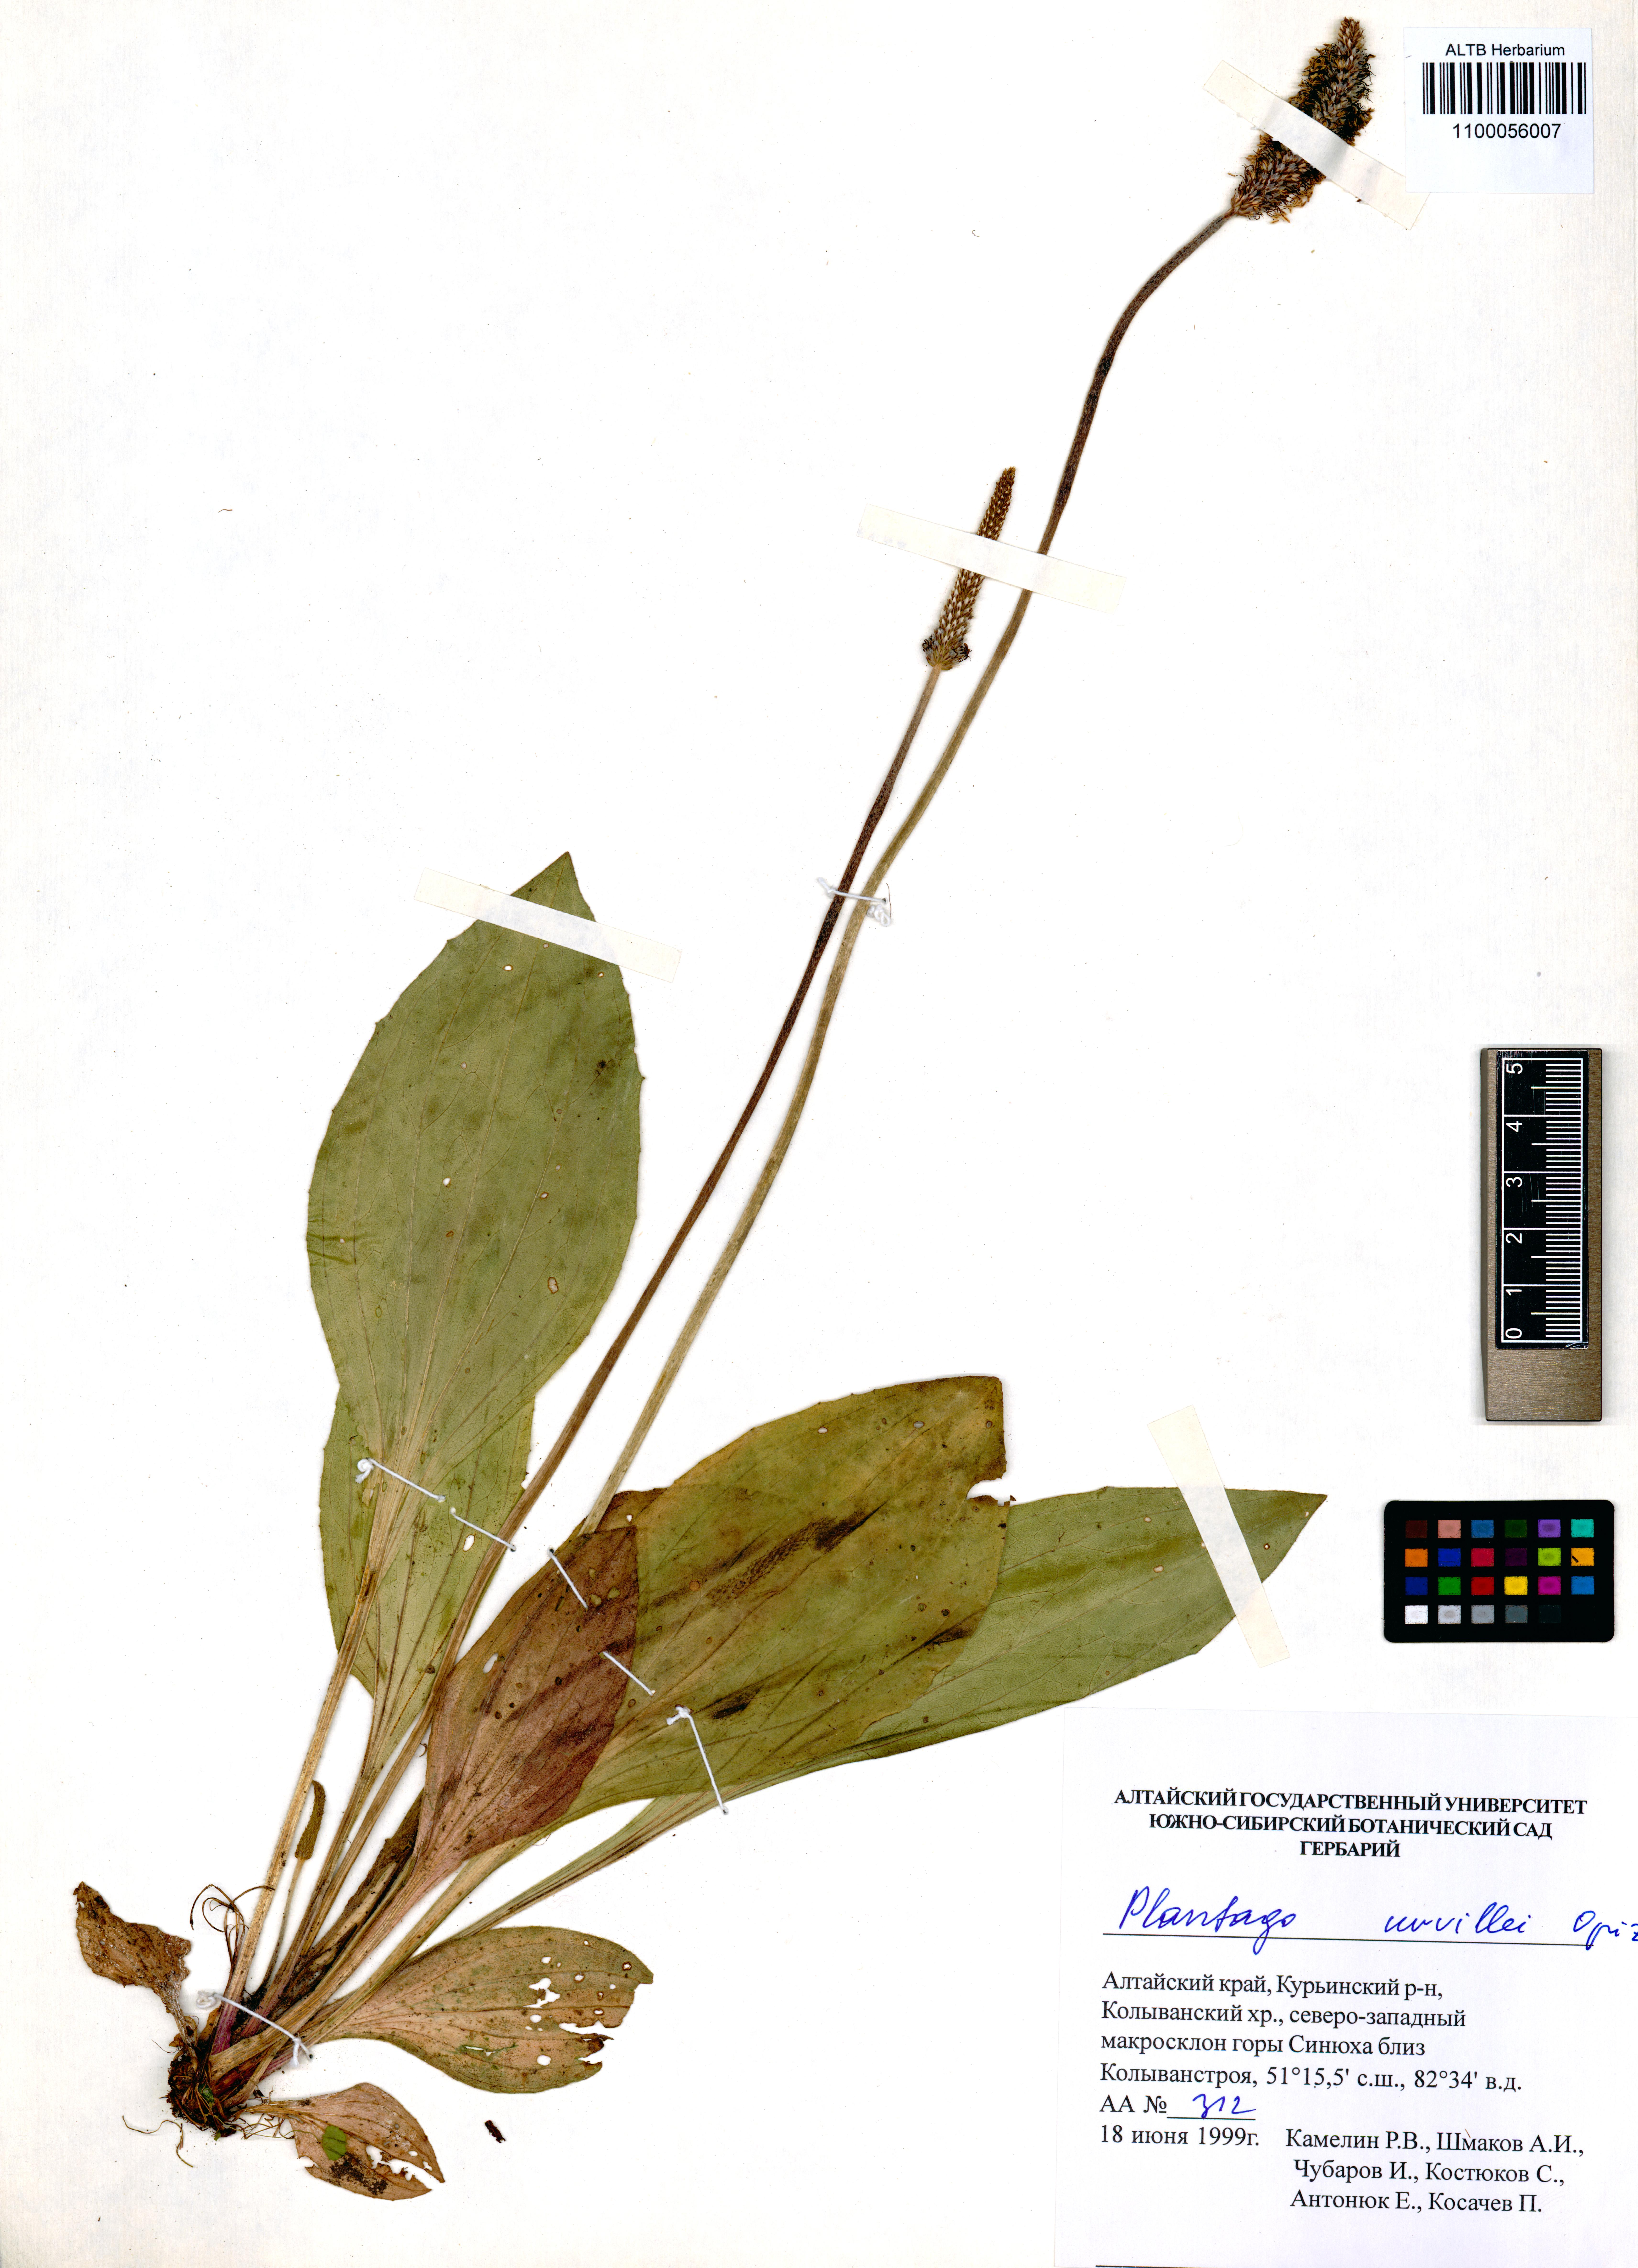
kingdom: Plantae
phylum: Tracheophyta
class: Magnoliopsida
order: Lamiales
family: Plantaginaceae
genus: Plantago
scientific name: Plantago urvillei
